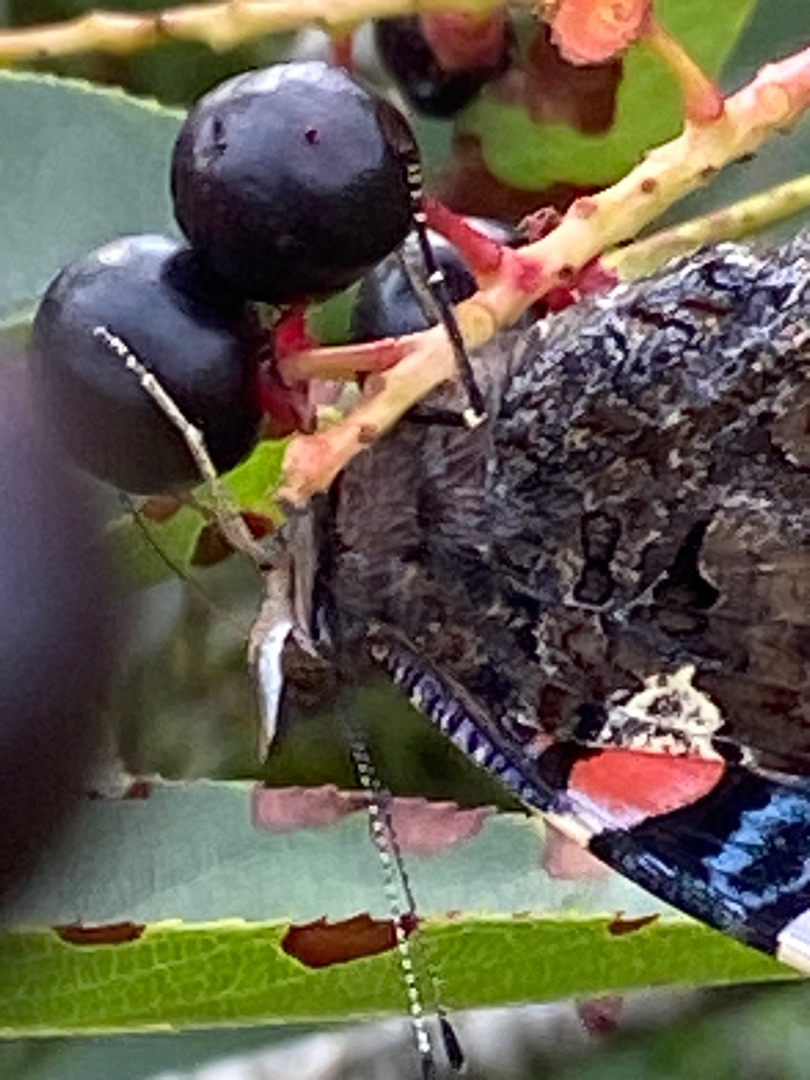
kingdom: Animalia
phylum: Arthropoda
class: Insecta
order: Lepidoptera
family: Nymphalidae
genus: Vanessa
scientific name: Vanessa atalanta
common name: Admiral
